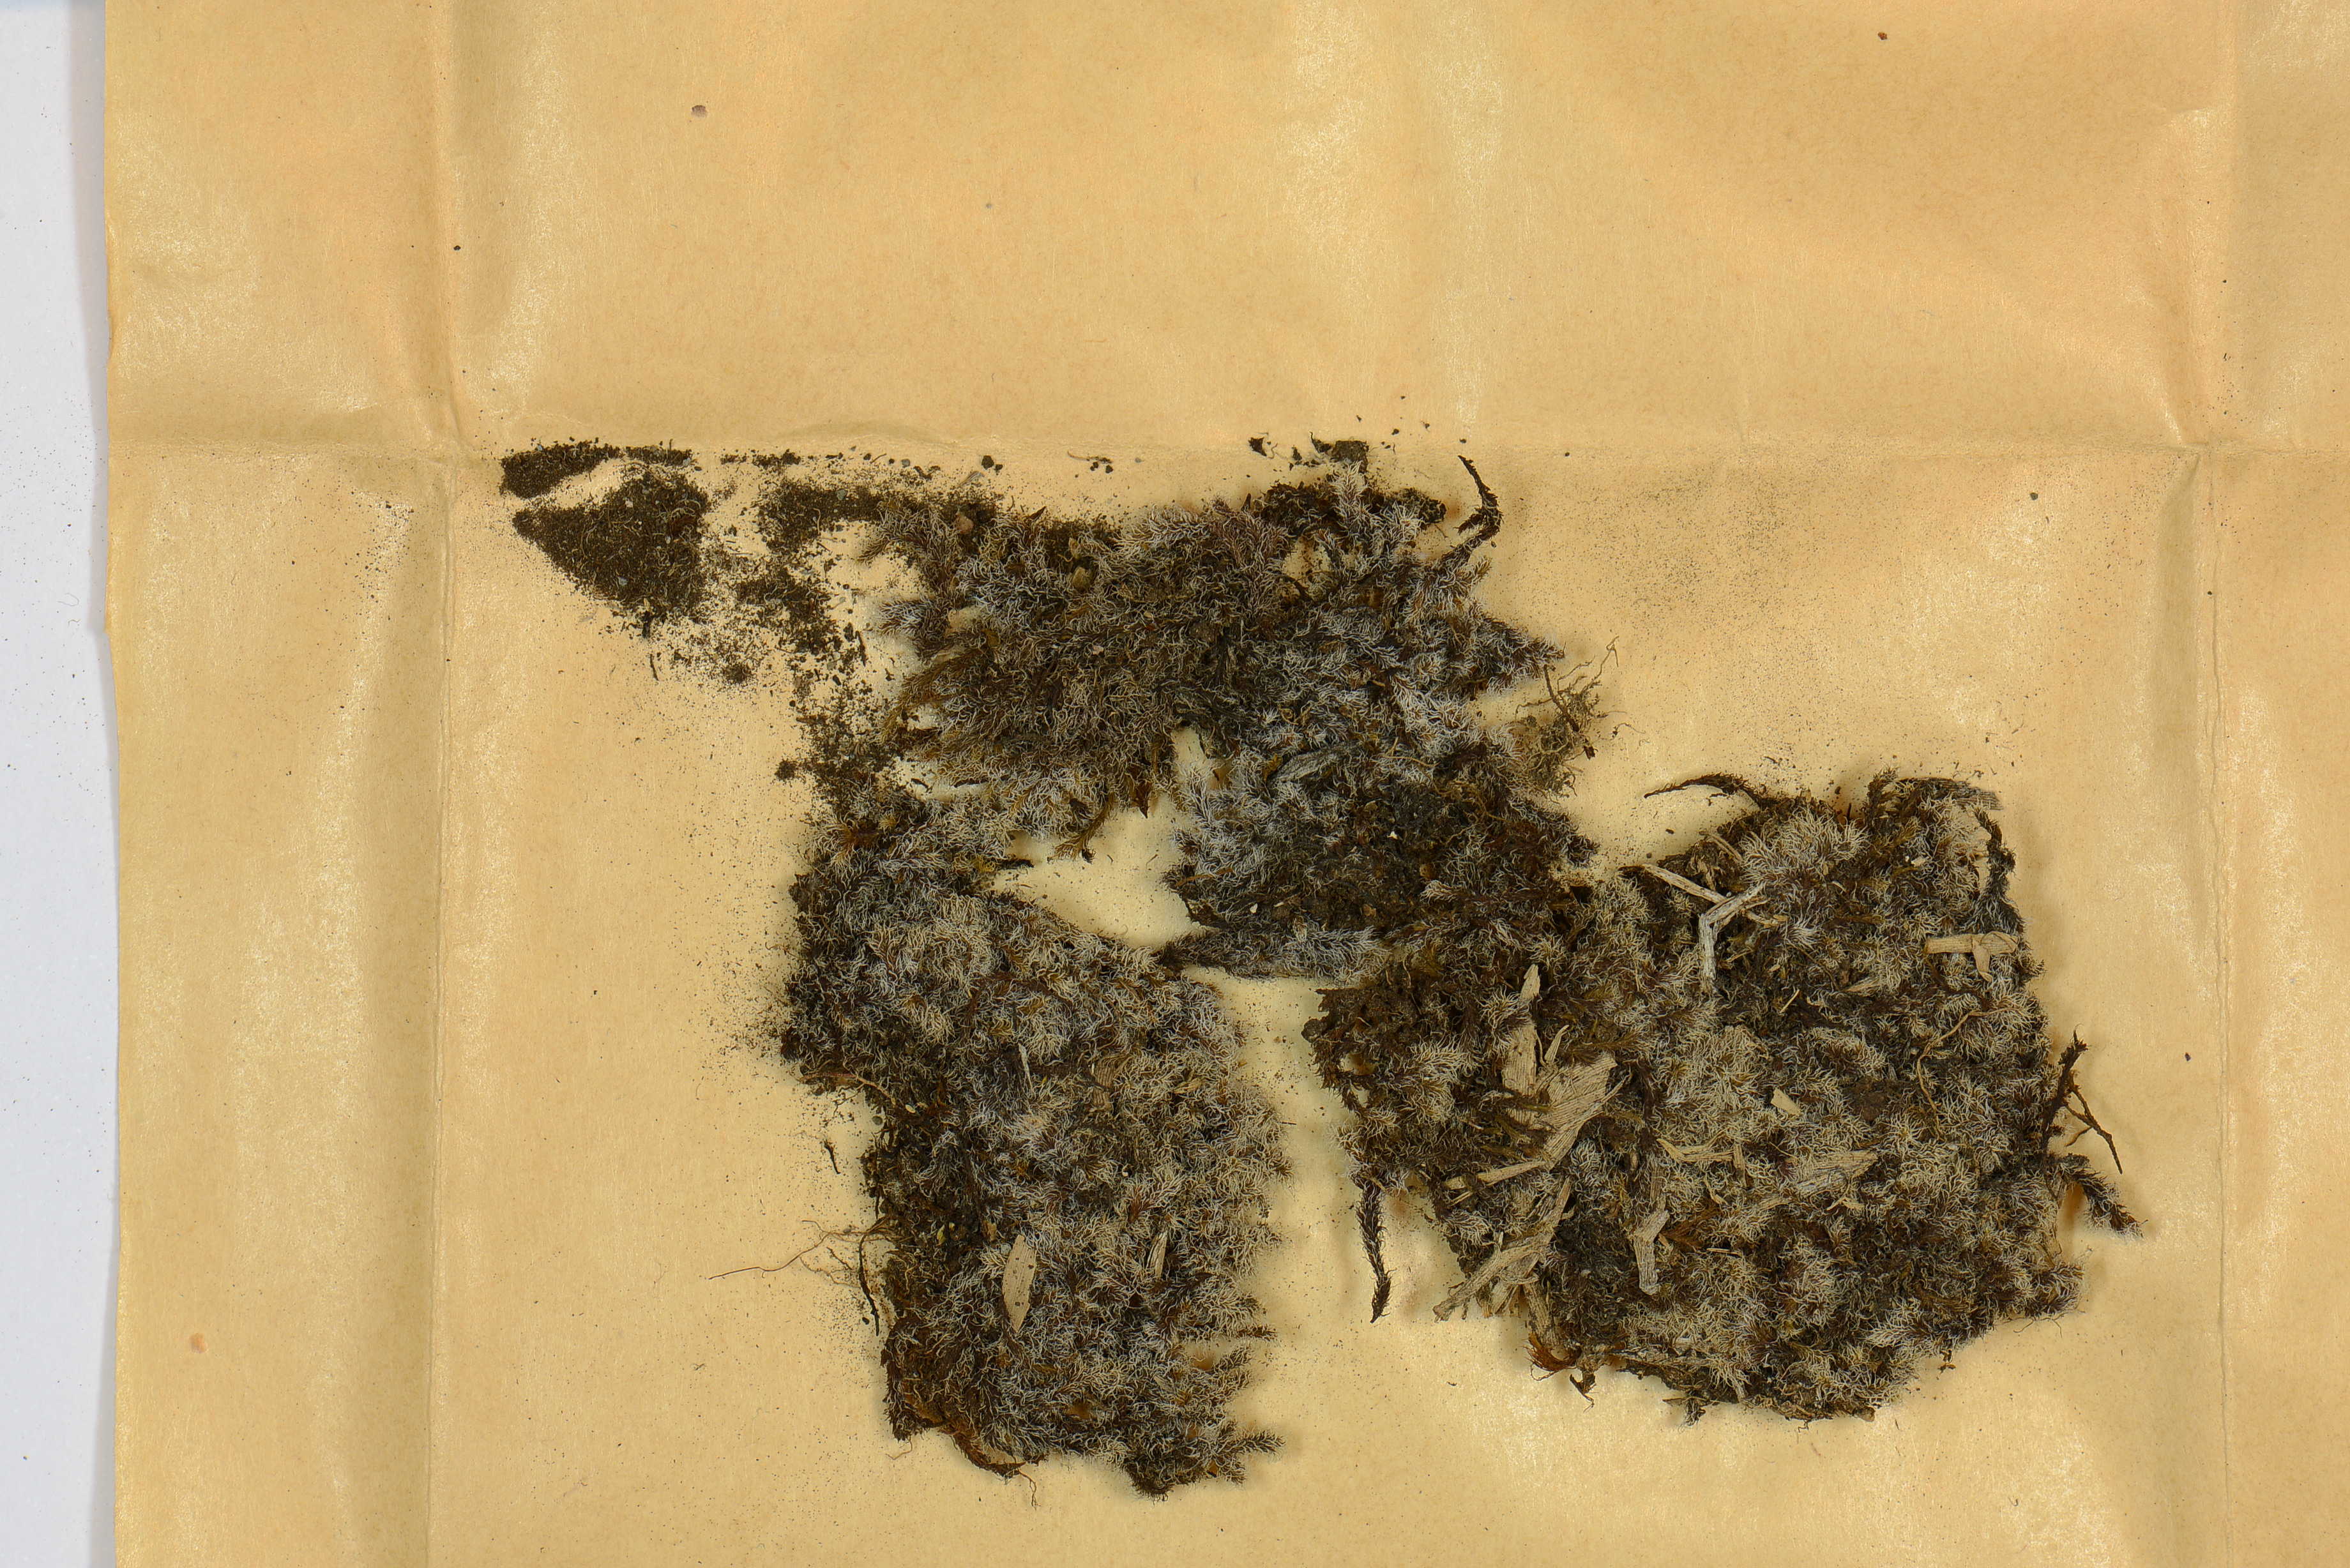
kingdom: Plantae
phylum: Bryophyta
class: Bryopsida
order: Grimmiales
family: Grimmiaceae
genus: Racomitrium
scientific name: Racomitrium lanuginosum
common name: Hoary rock moss
